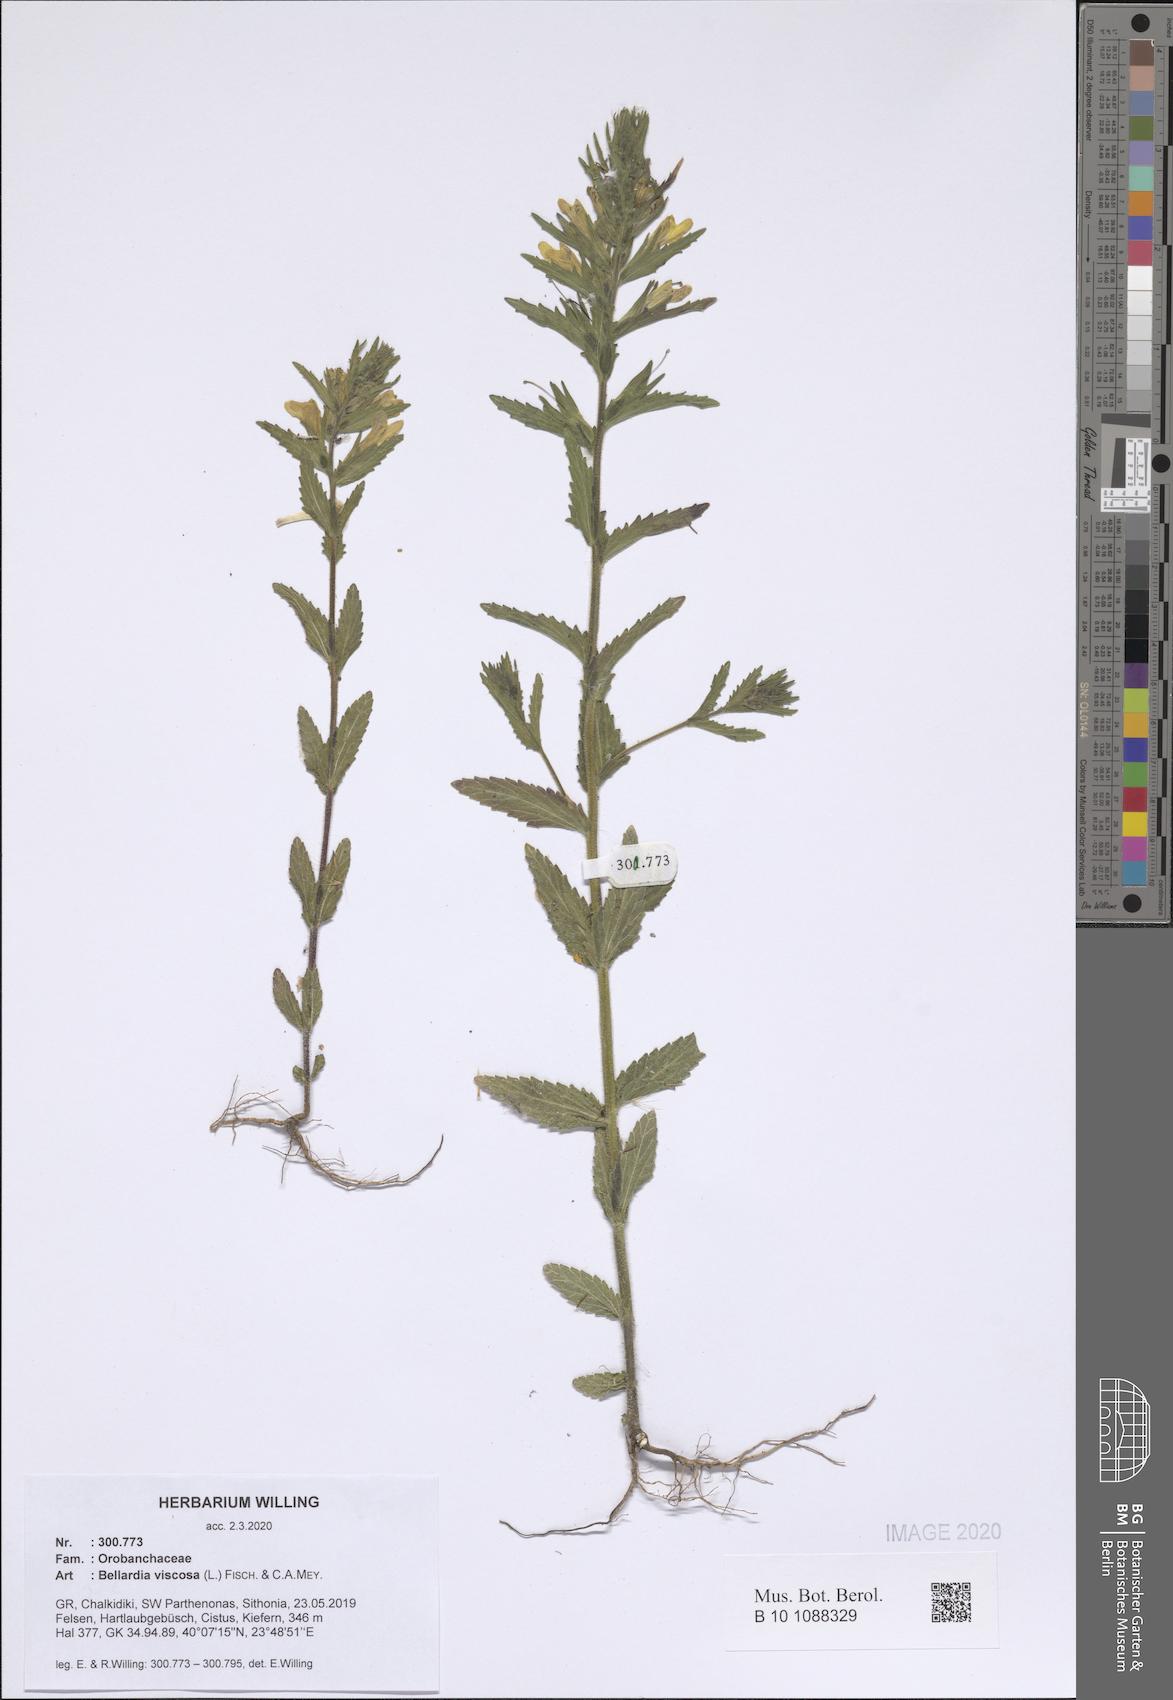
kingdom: Plantae
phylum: Tracheophyta
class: Magnoliopsida
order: Lamiales
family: Orobanchaceae
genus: Bellardia
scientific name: Bellardia viscosa
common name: Sticky parentucellia
